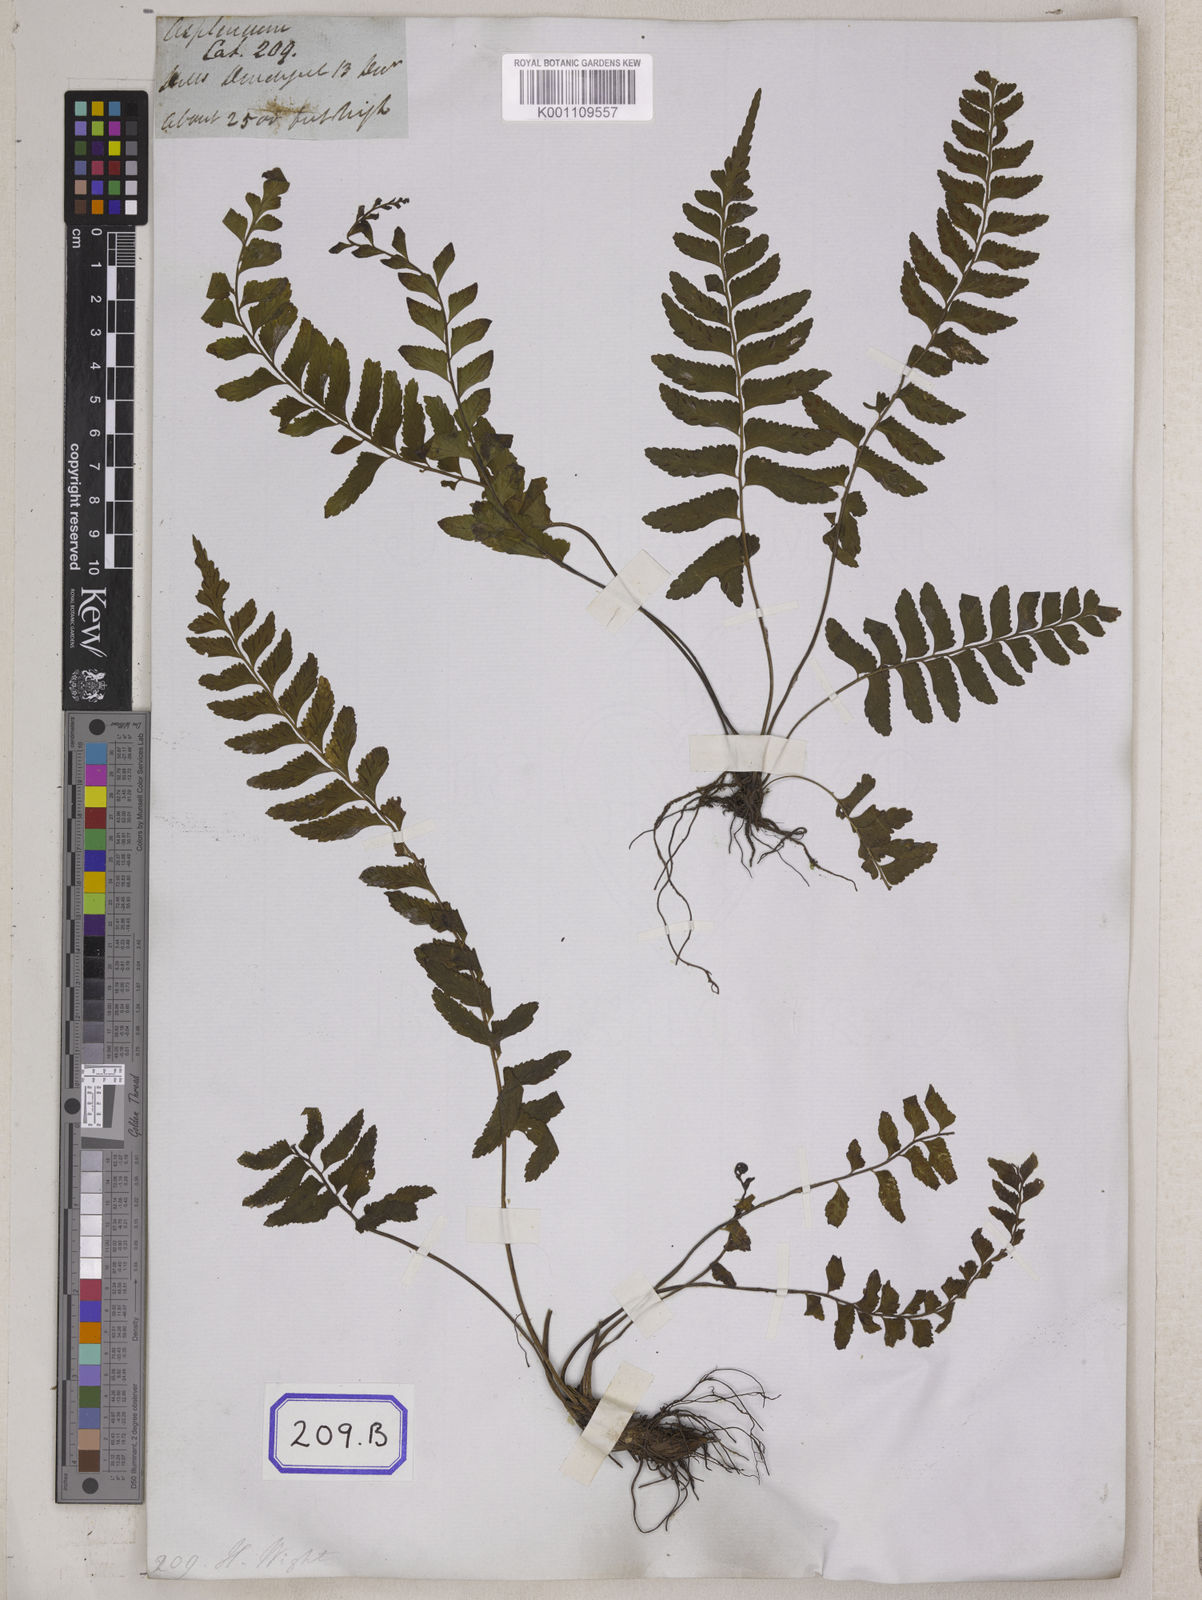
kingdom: Plantae
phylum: Tracheophyta
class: Polypodiopsida
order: Polypodiales
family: Aspleniaceae
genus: Asplenium
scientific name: Asplenium
